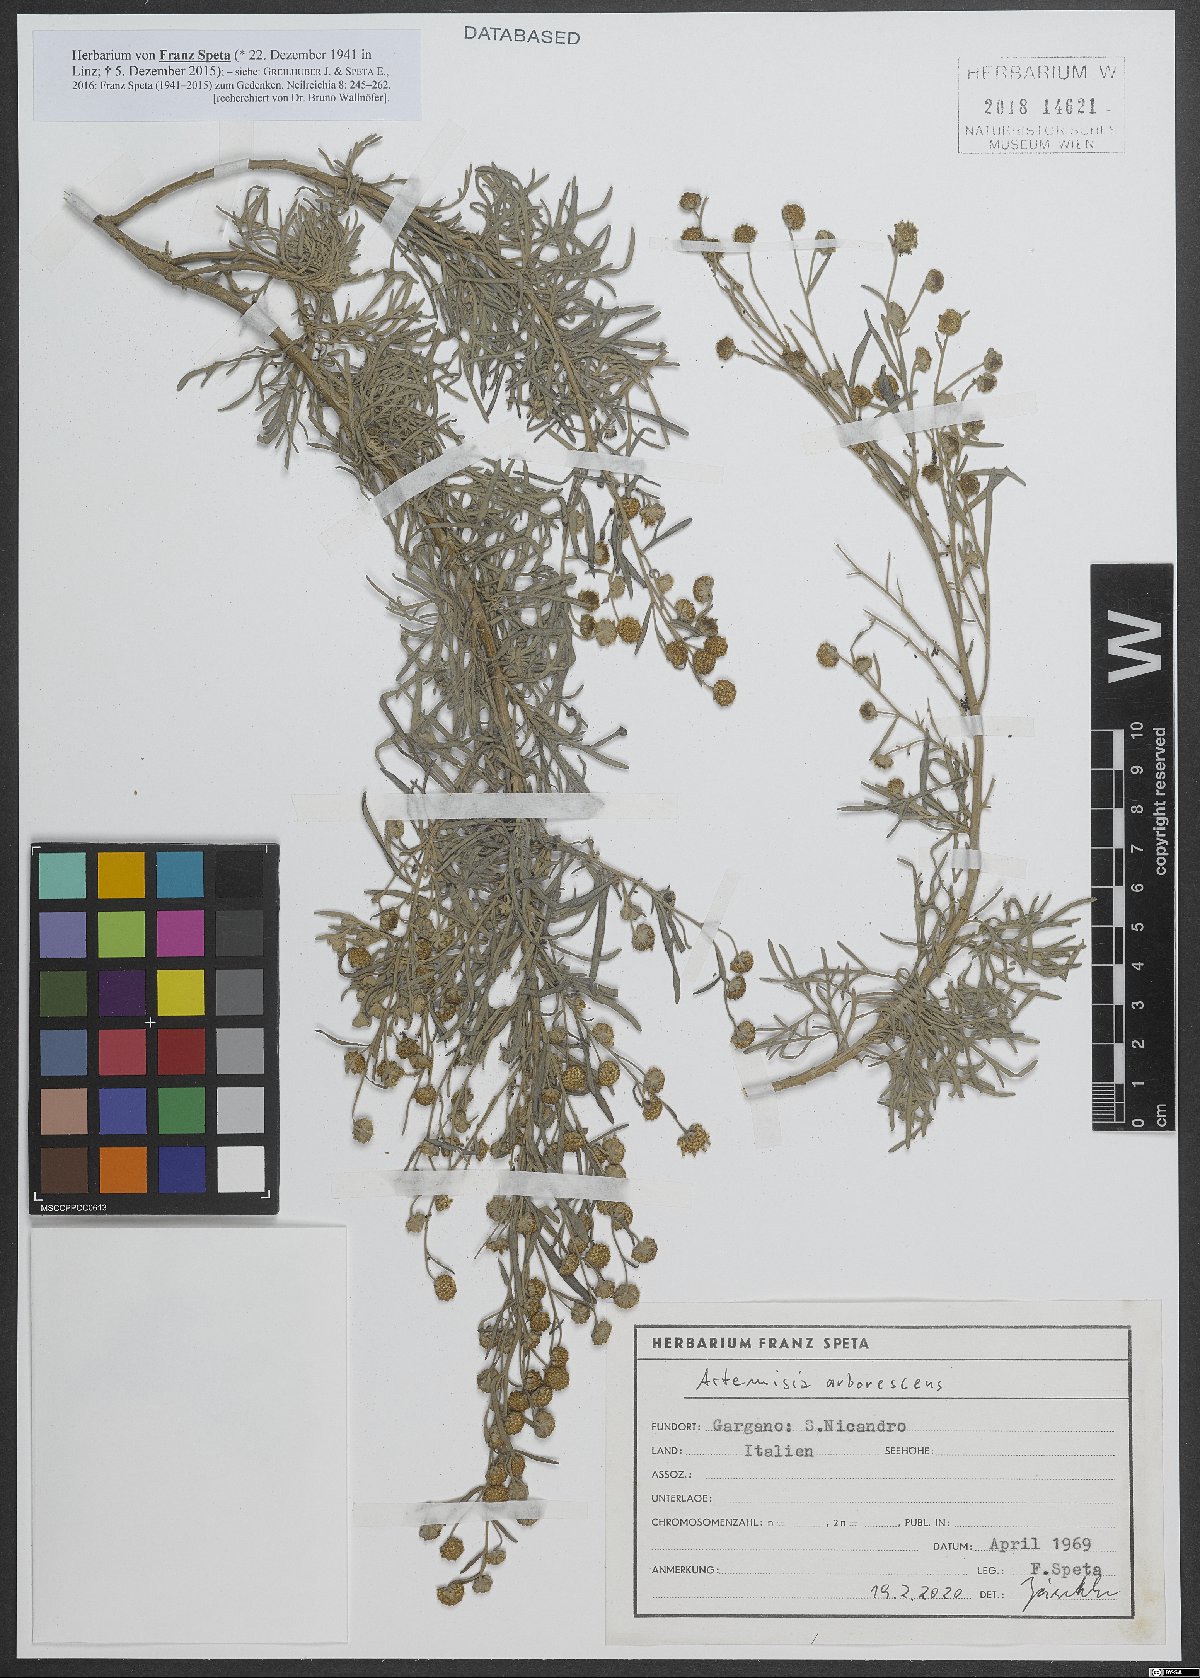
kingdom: Plantae
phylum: Tracheophyta
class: Magnoliopsida
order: Asterales
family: Asteraceae
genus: Artemisia
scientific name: Artemisia arborescens
